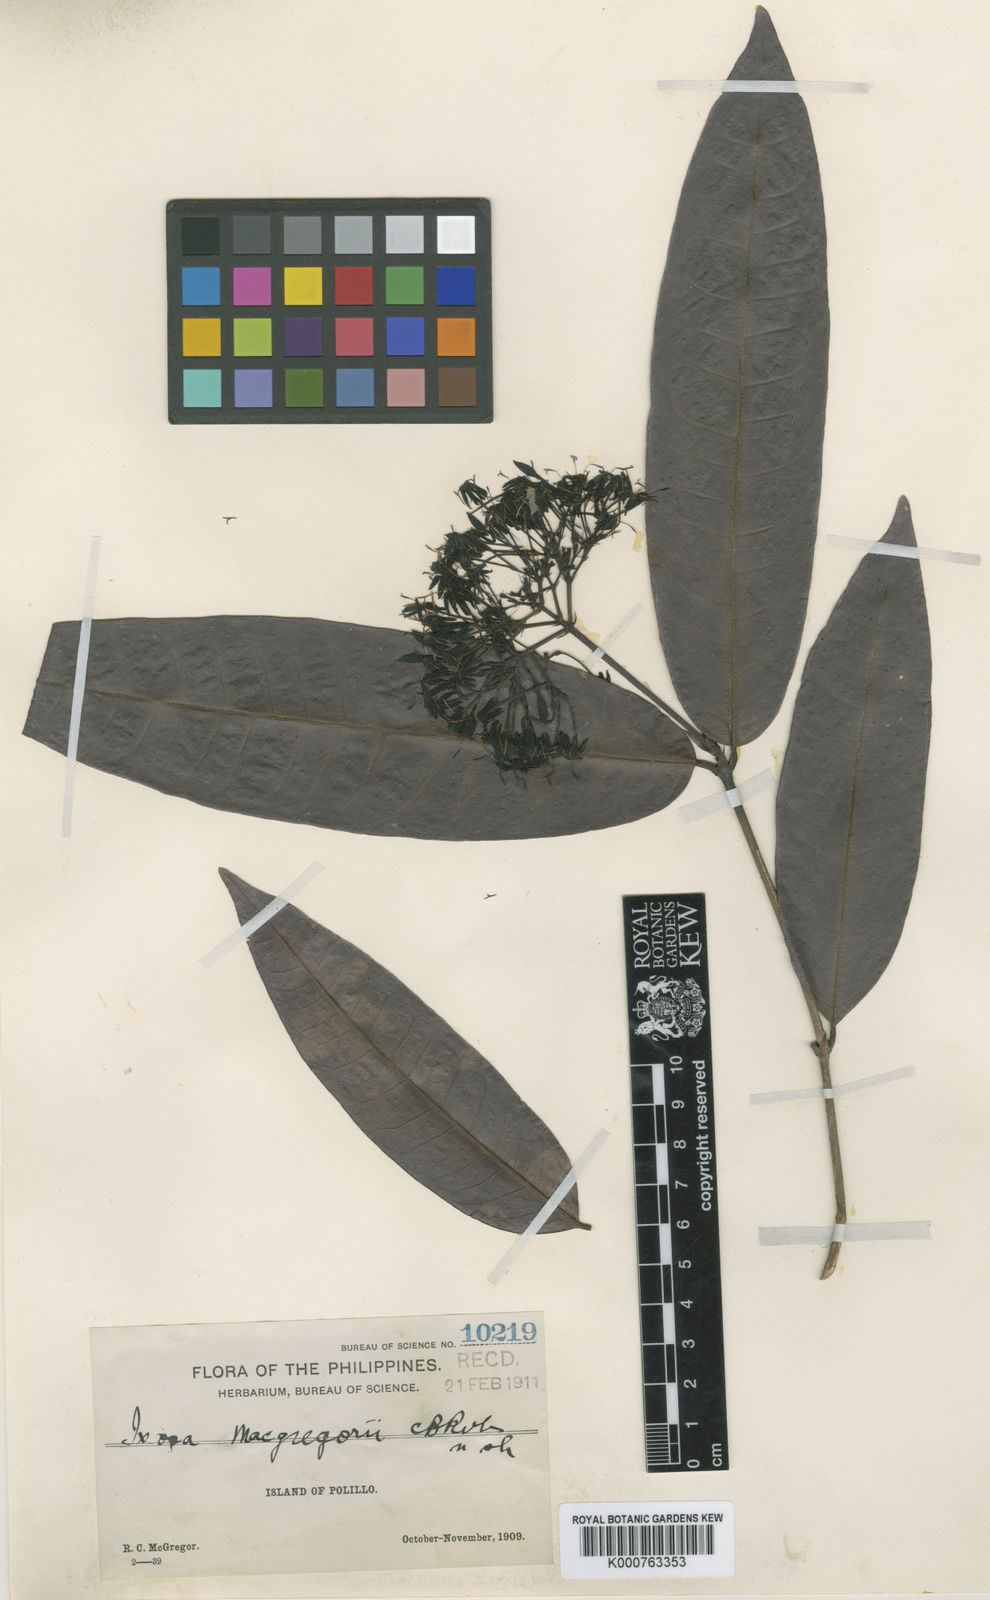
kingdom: Plantae
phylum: Tracheophyta
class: Magnoliopsida
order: Gentianales
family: Rubiaceae
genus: Ixora
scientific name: Ixora macgregorii
